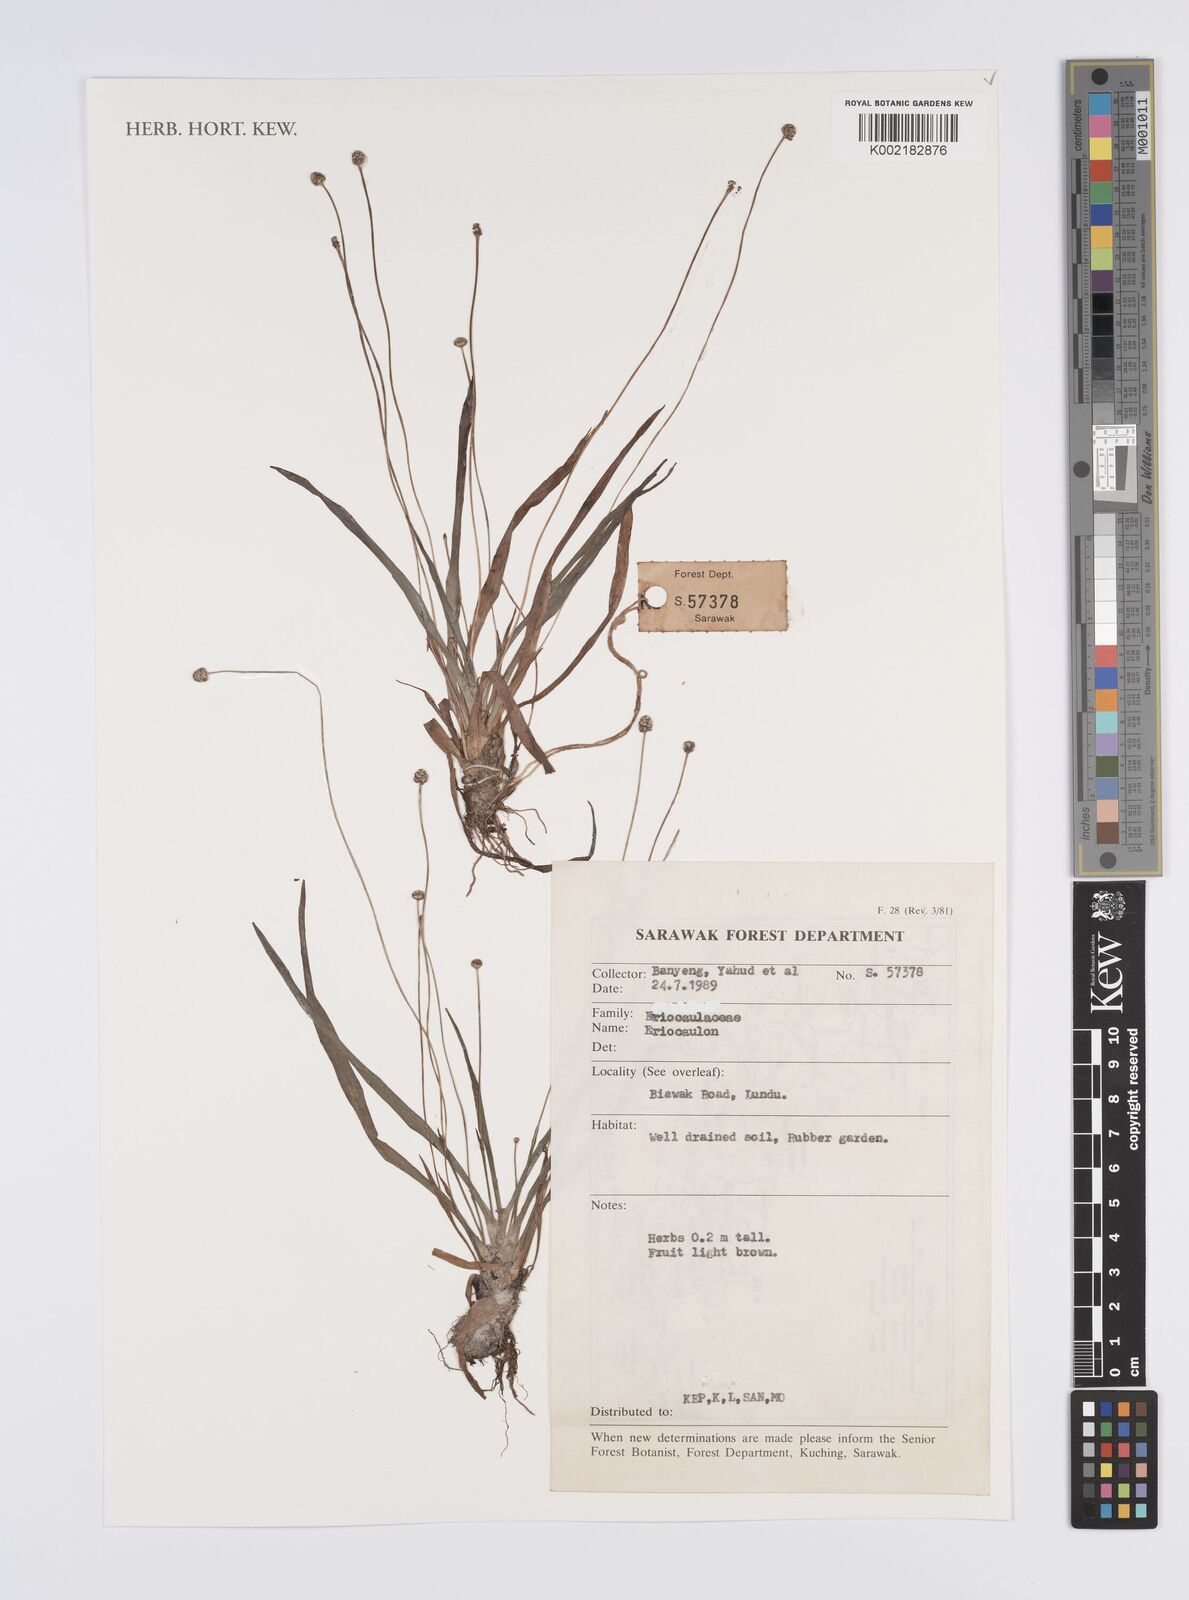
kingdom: Plantae
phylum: Tracheophyta
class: Liliopsida
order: Poales
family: Eriocaulaceae
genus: Eriocaulon
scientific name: Eriocaulon
